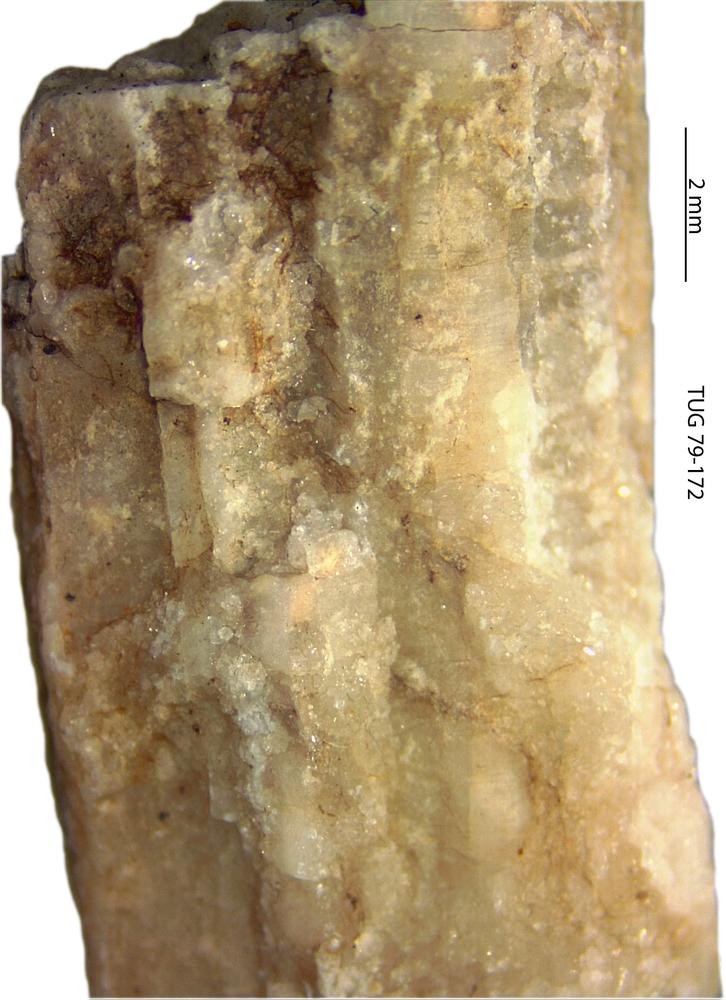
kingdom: Animalia
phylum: Cnidaria
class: Anthozoa
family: Cateniporidae
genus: Catenipora
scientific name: Catenipora
